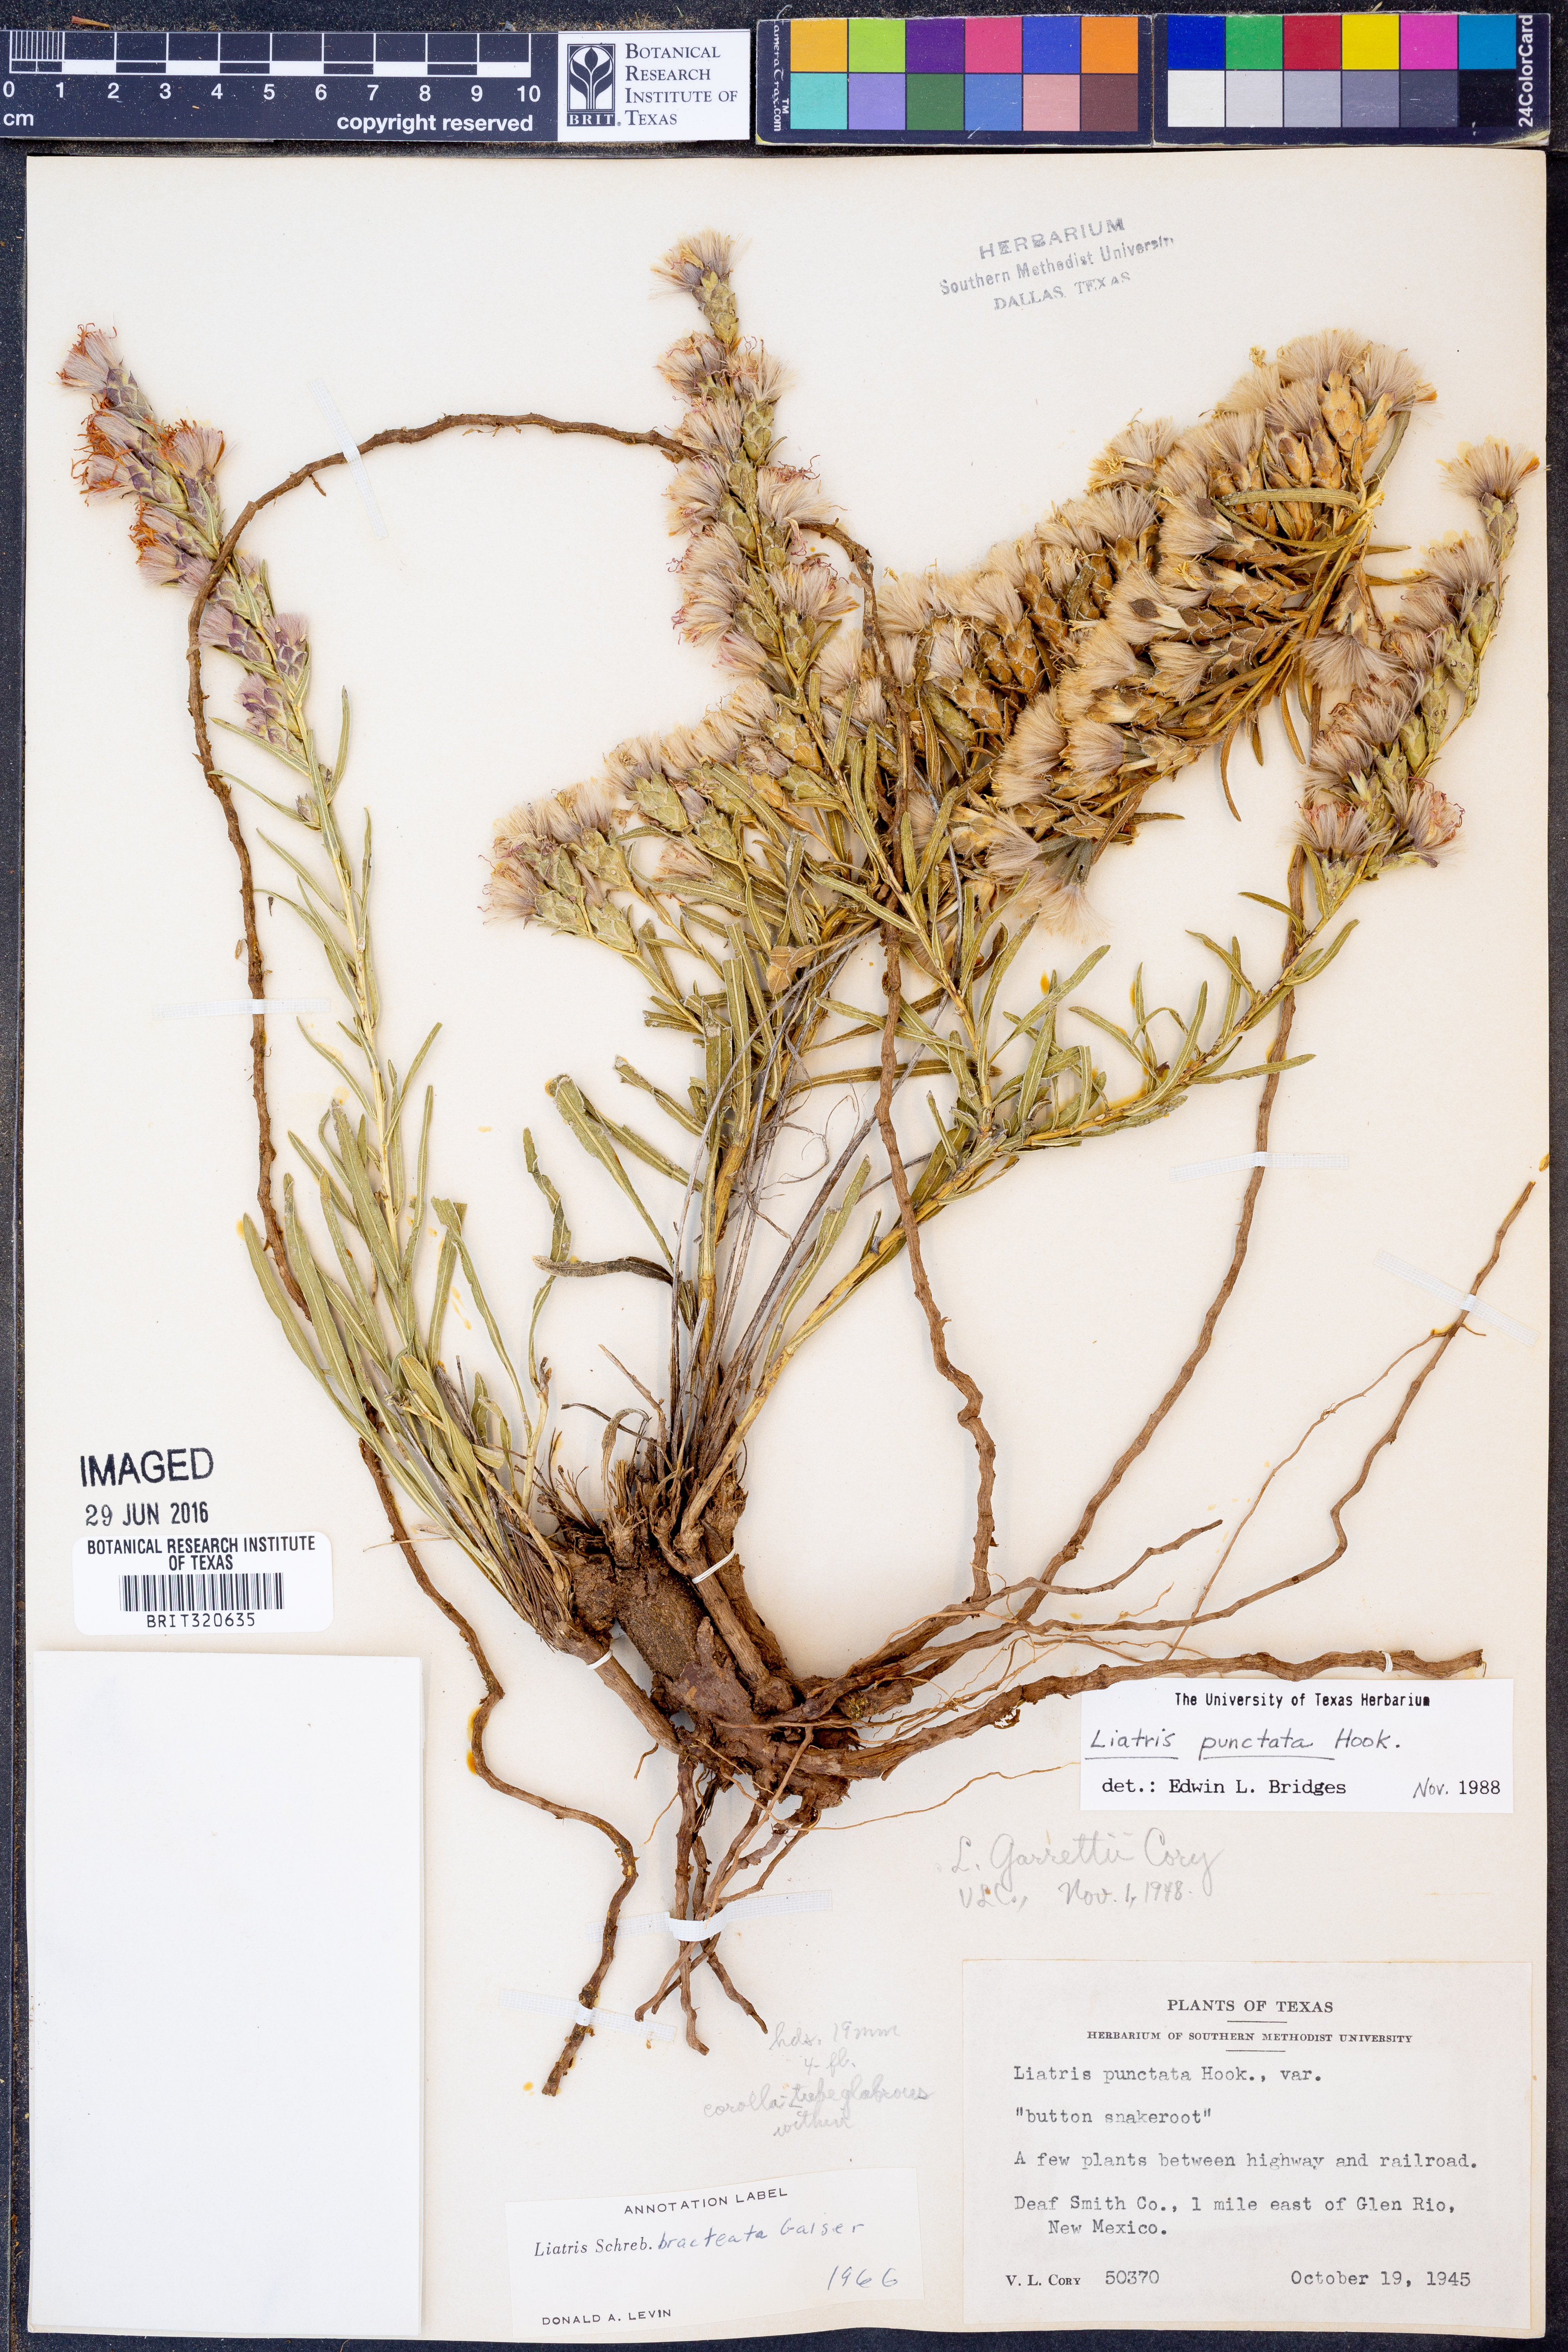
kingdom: Plantae
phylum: Tracheophyta
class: Magnoliopsida
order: Asterales
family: Asteraceae
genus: Liatris
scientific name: Liatris punctata
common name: Dotted gayfeather
